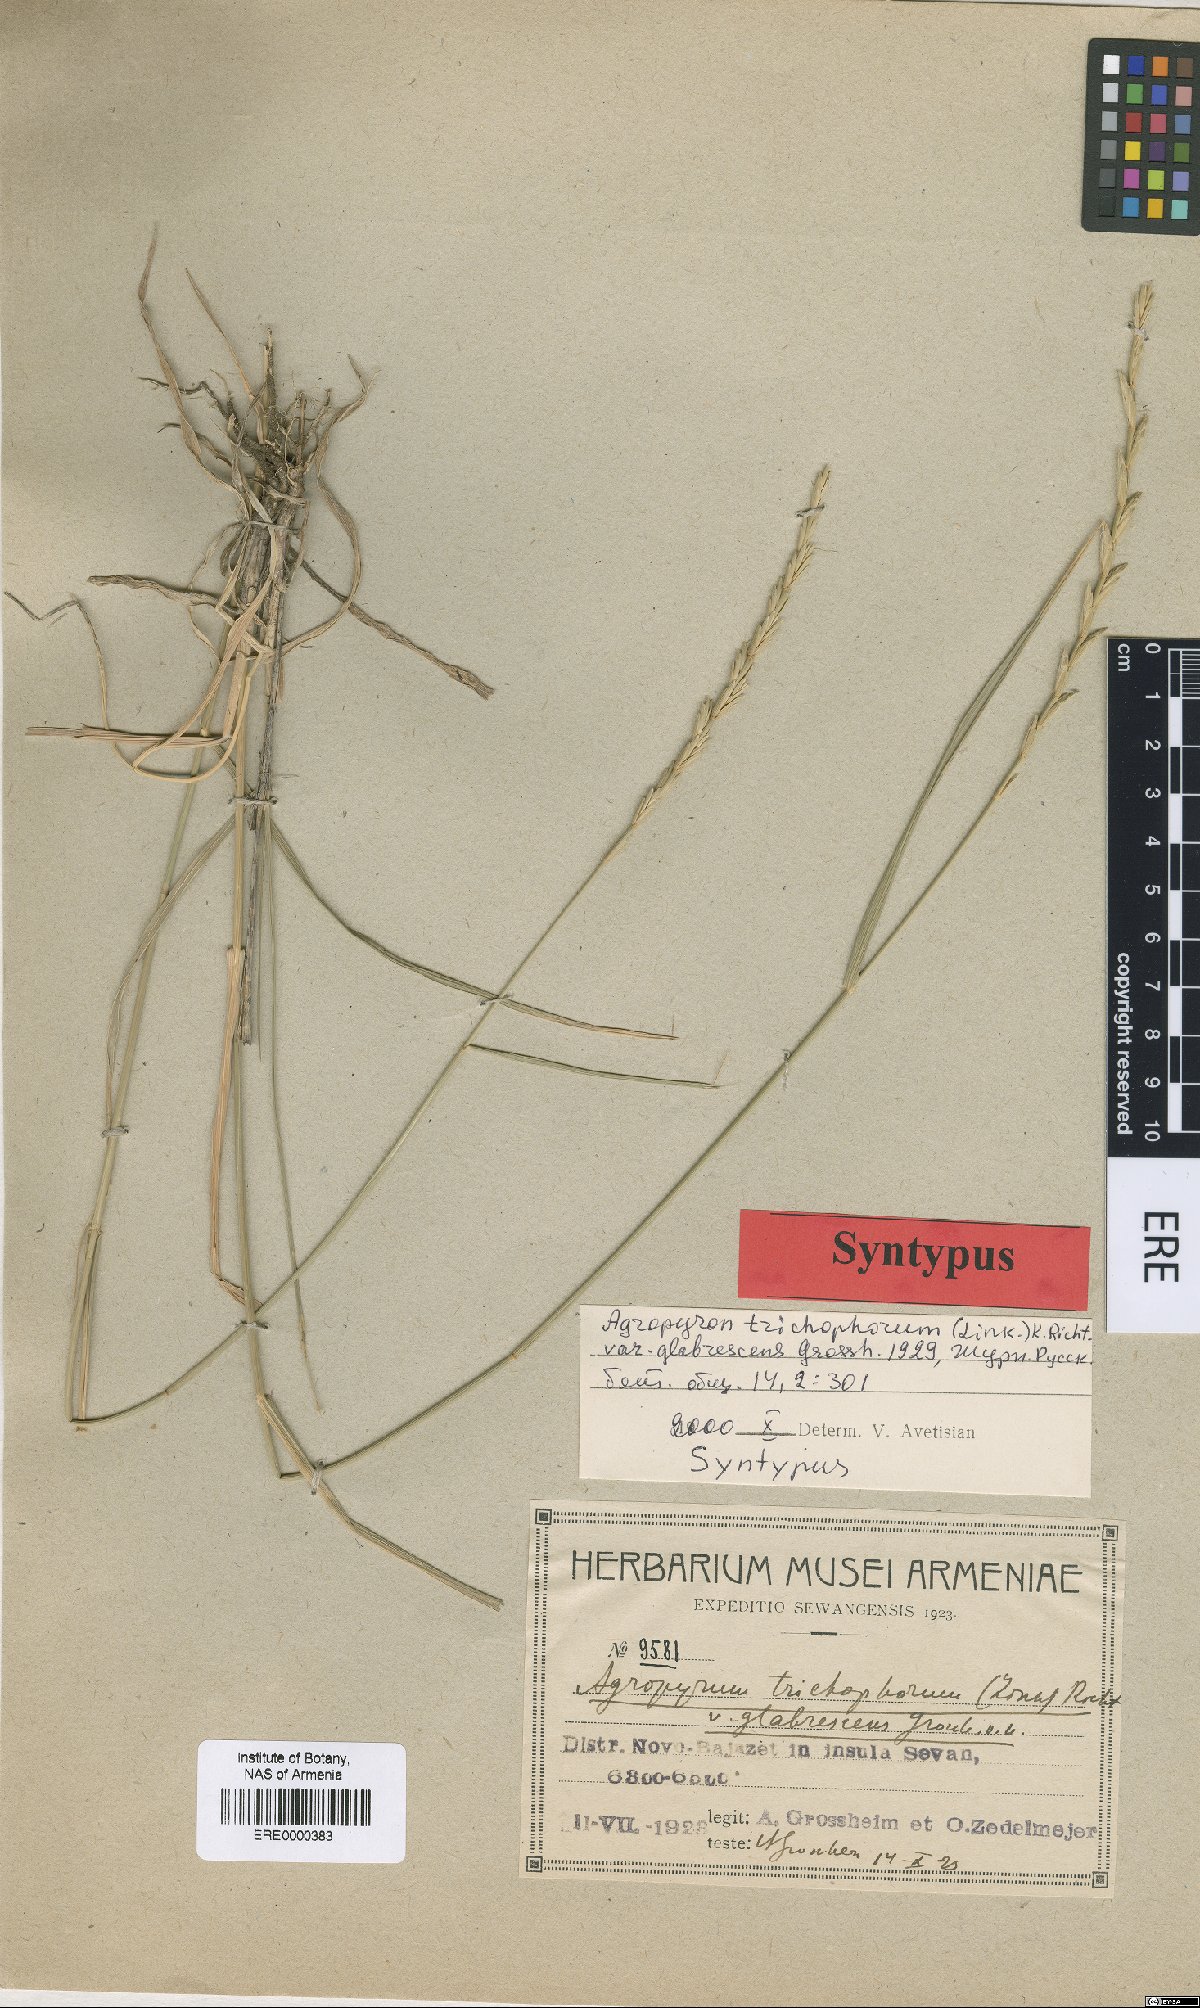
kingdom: Plantae
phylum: Tracheophyta
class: Liliopsida
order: Poales
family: Poaceae
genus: Thinopyrum
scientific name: Thinopyrum intermedium
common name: Intermediate wheatgrass
